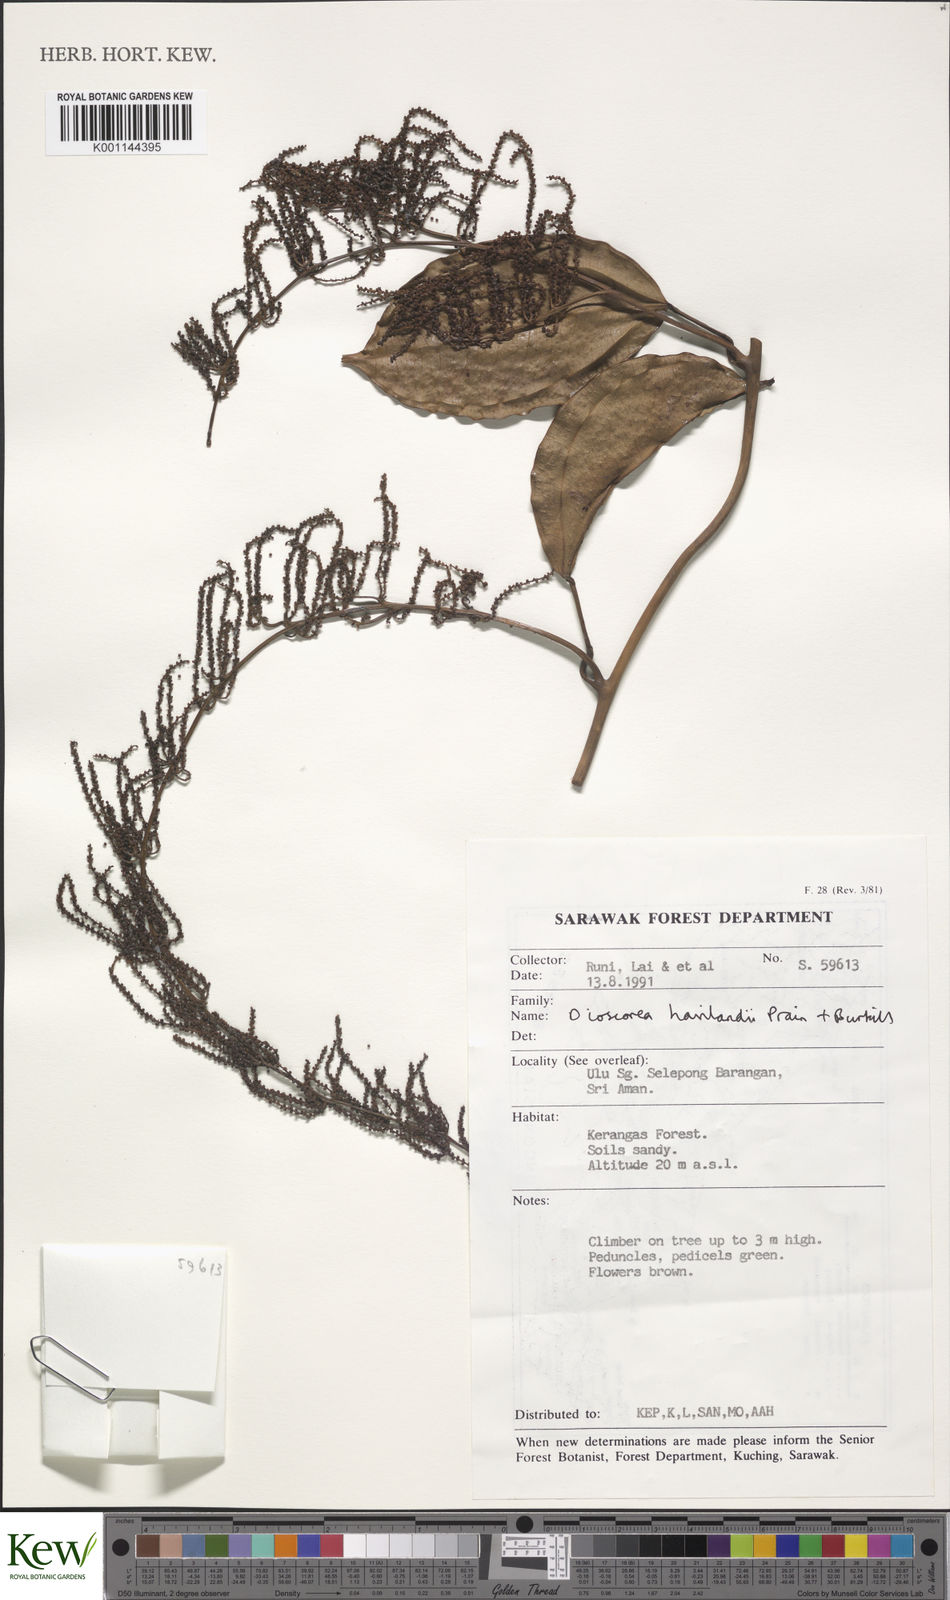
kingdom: Plantae
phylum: Tracheophyta
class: Liliopsida
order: Dioscoreales
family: Dioscoreaceae
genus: Dioscorea
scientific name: Dioscorea havilandii
